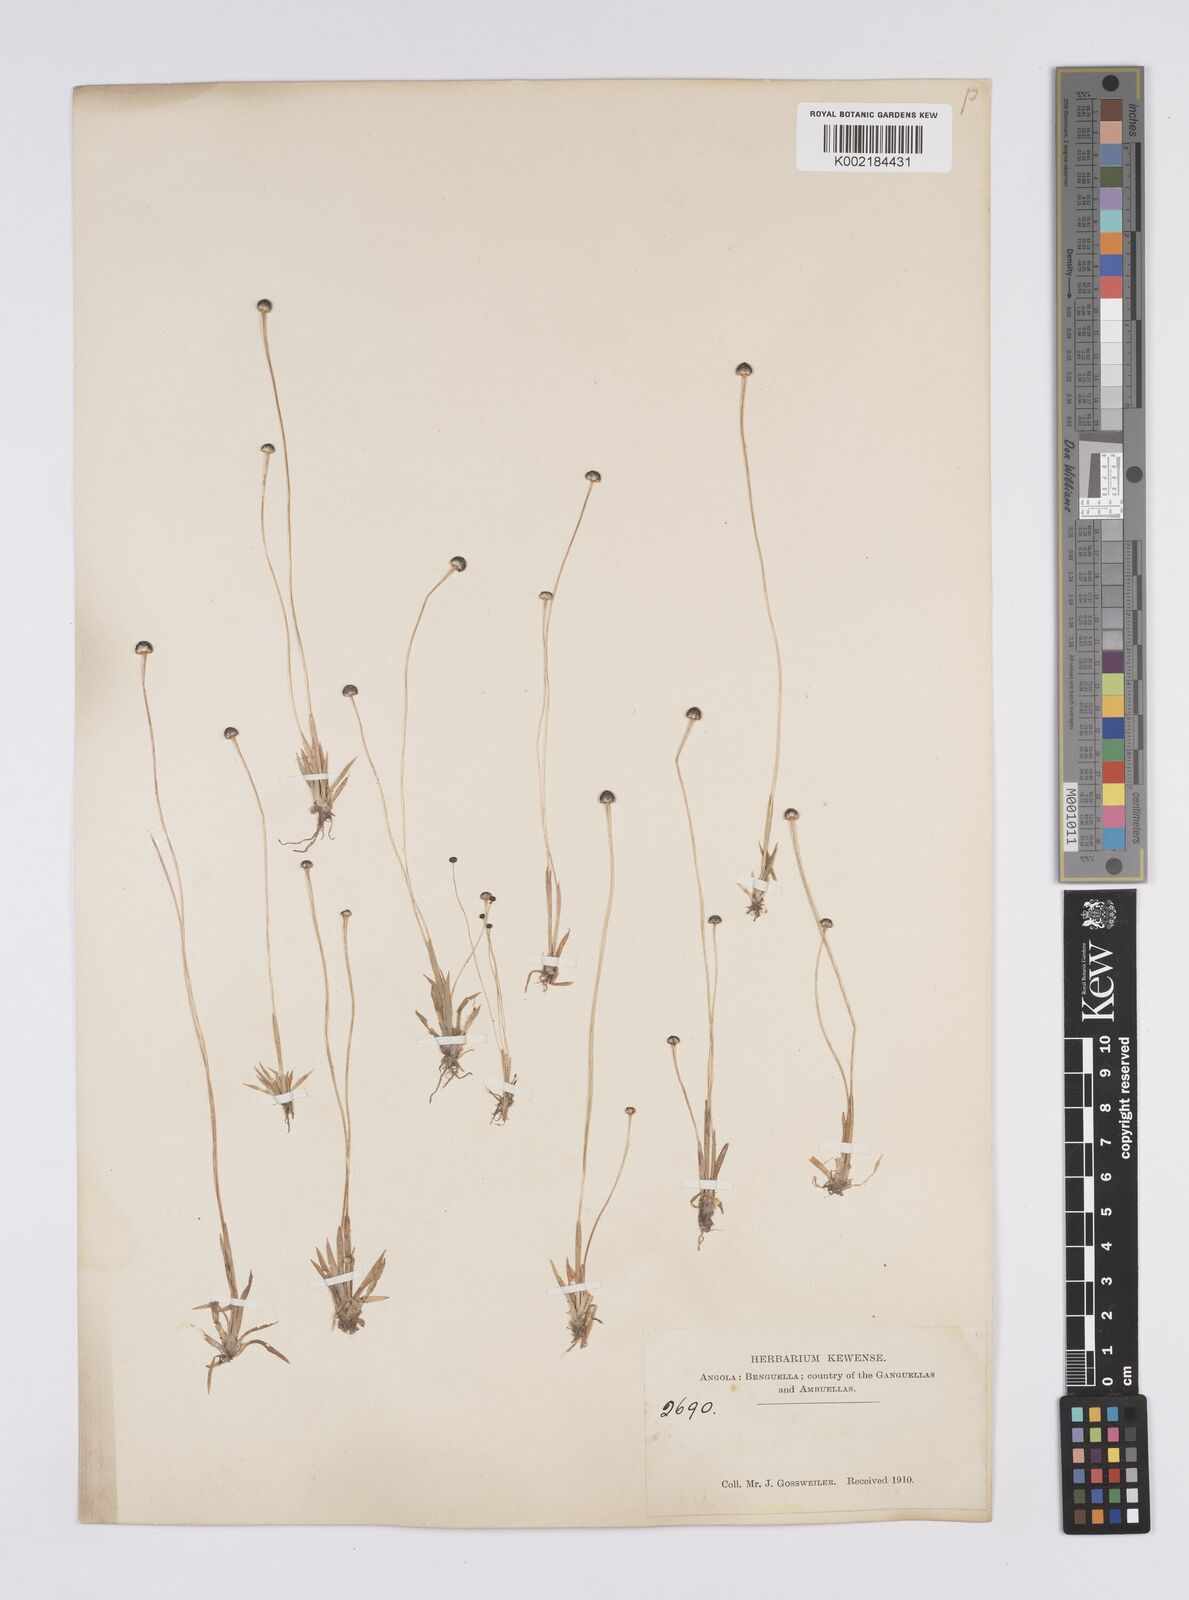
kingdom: Plantae
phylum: Tracheophyta
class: Liliopsida
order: Poales
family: Eriocaulaceae
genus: Eriocaulon
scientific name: Eriocaulon
